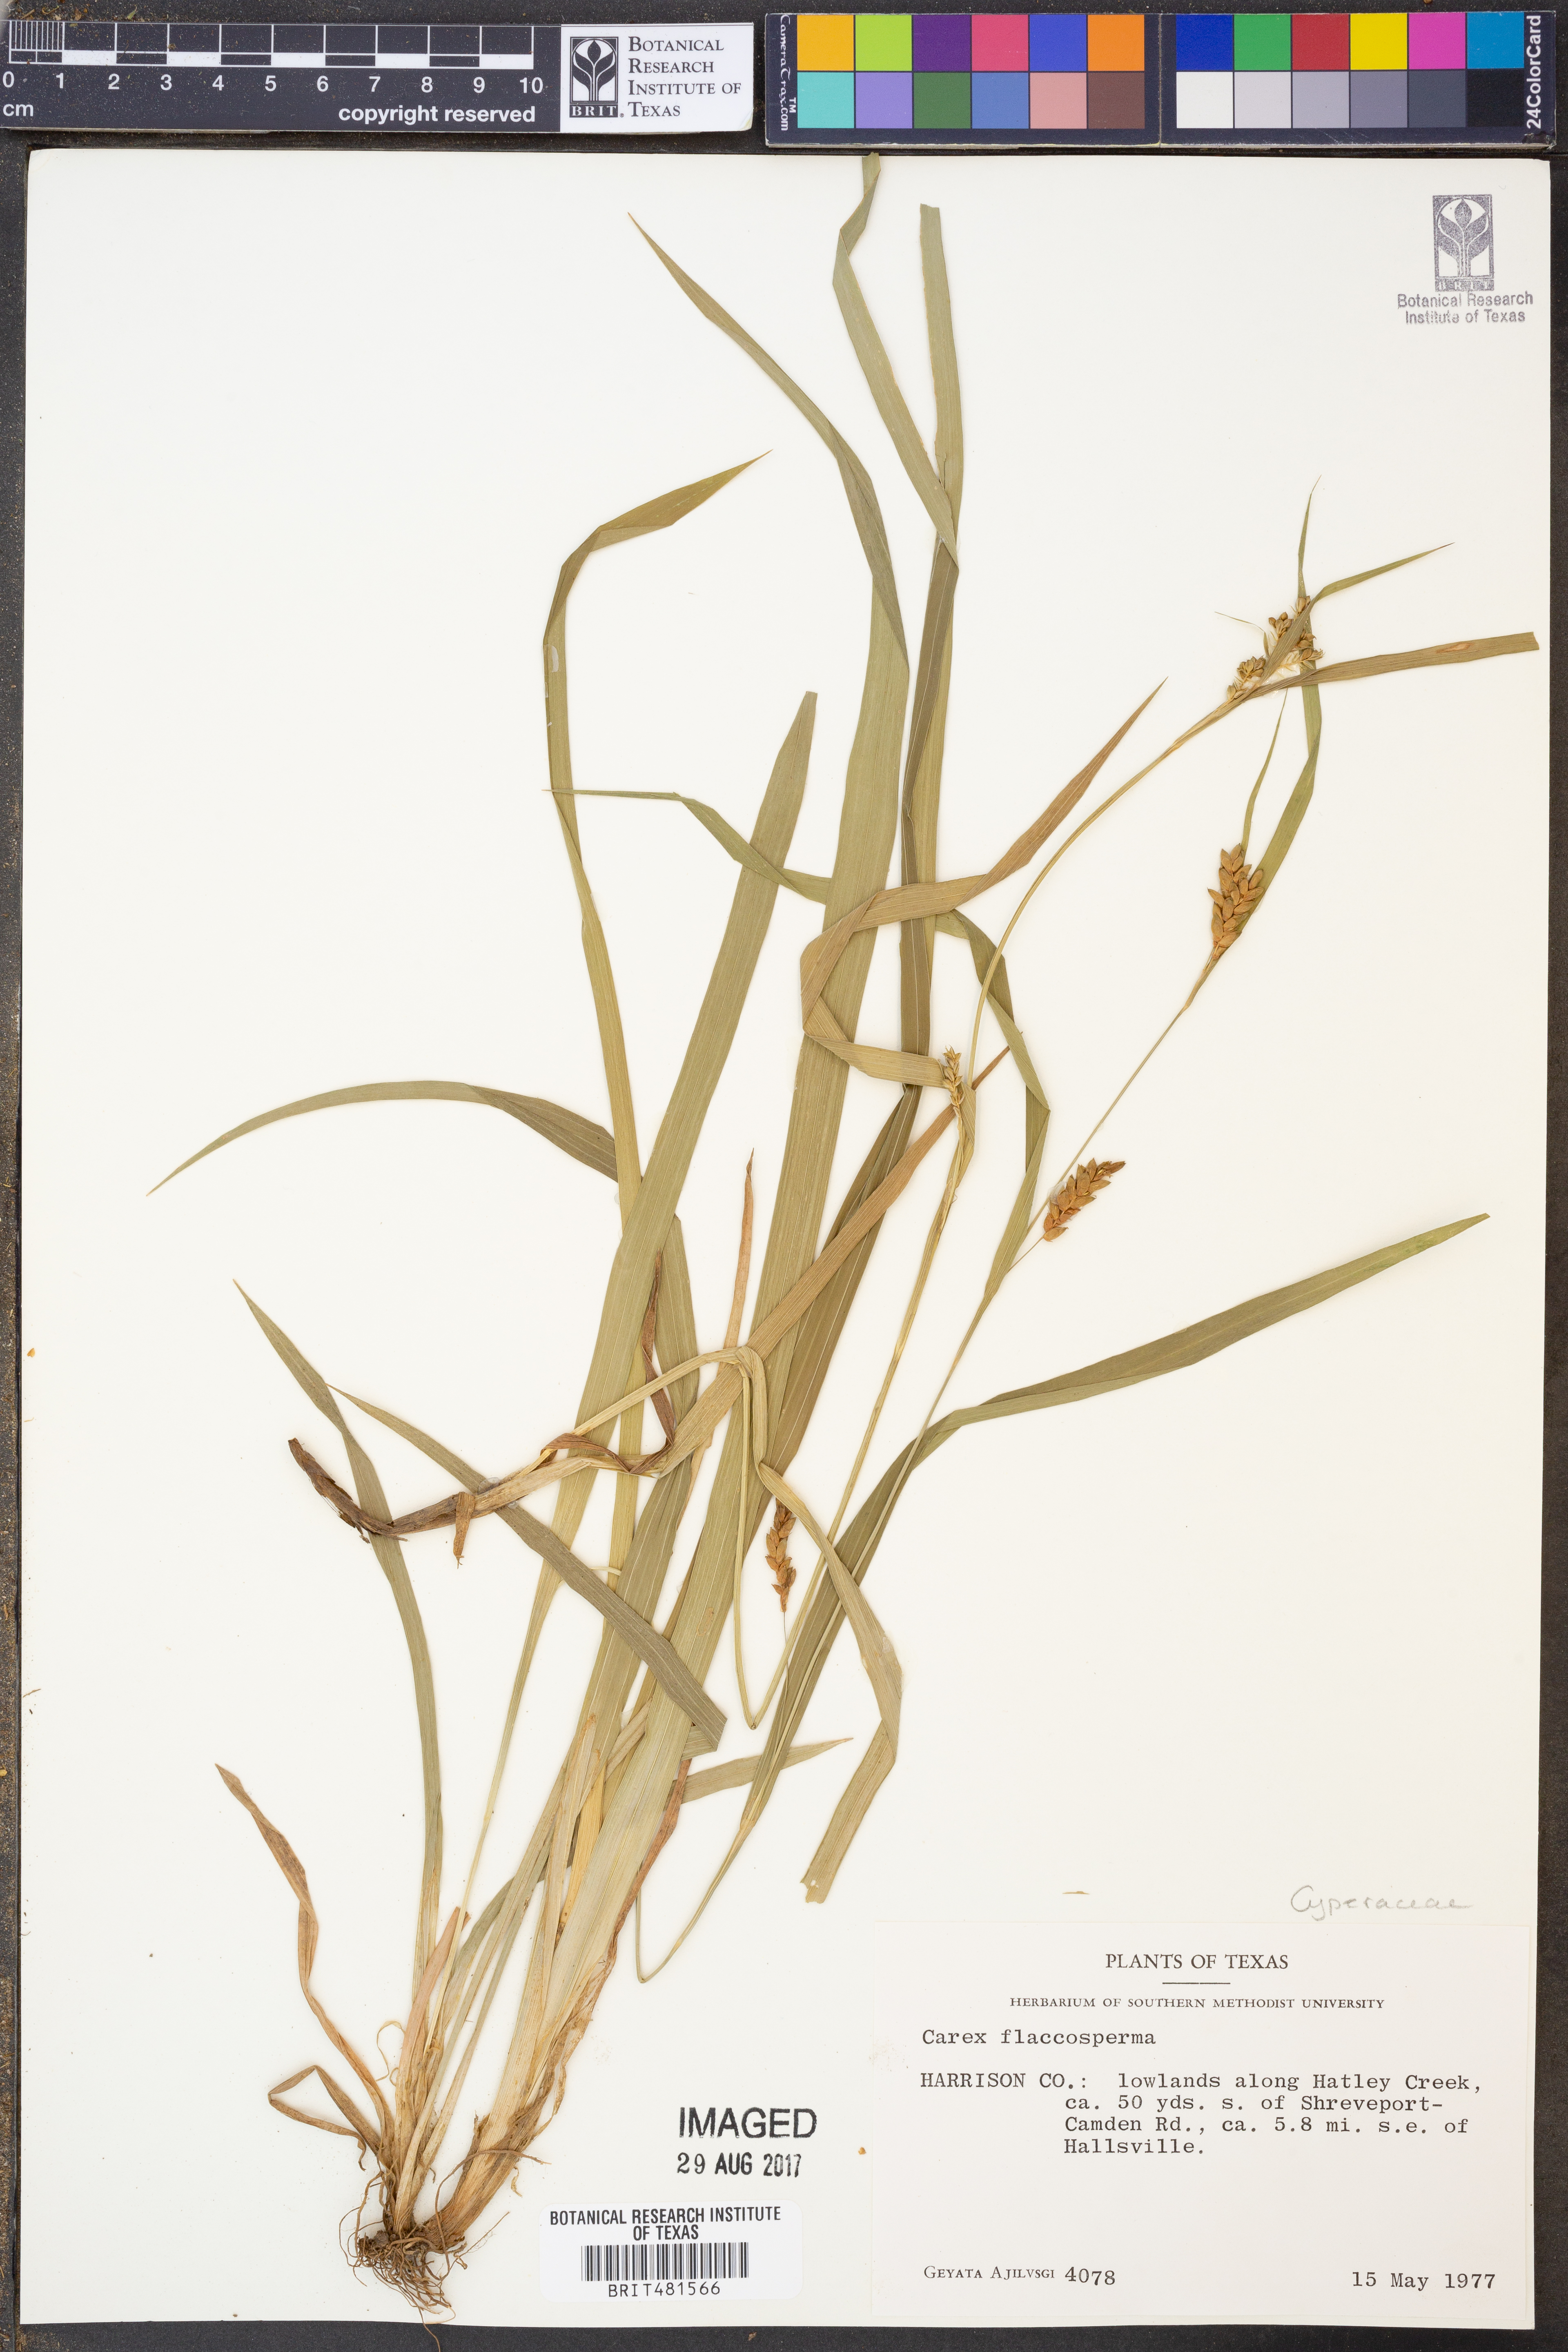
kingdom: Plantae
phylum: Tracheophyta
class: Liliopsida
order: Poales
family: Cyperaceae
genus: Carex
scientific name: Carex flaccosperma
